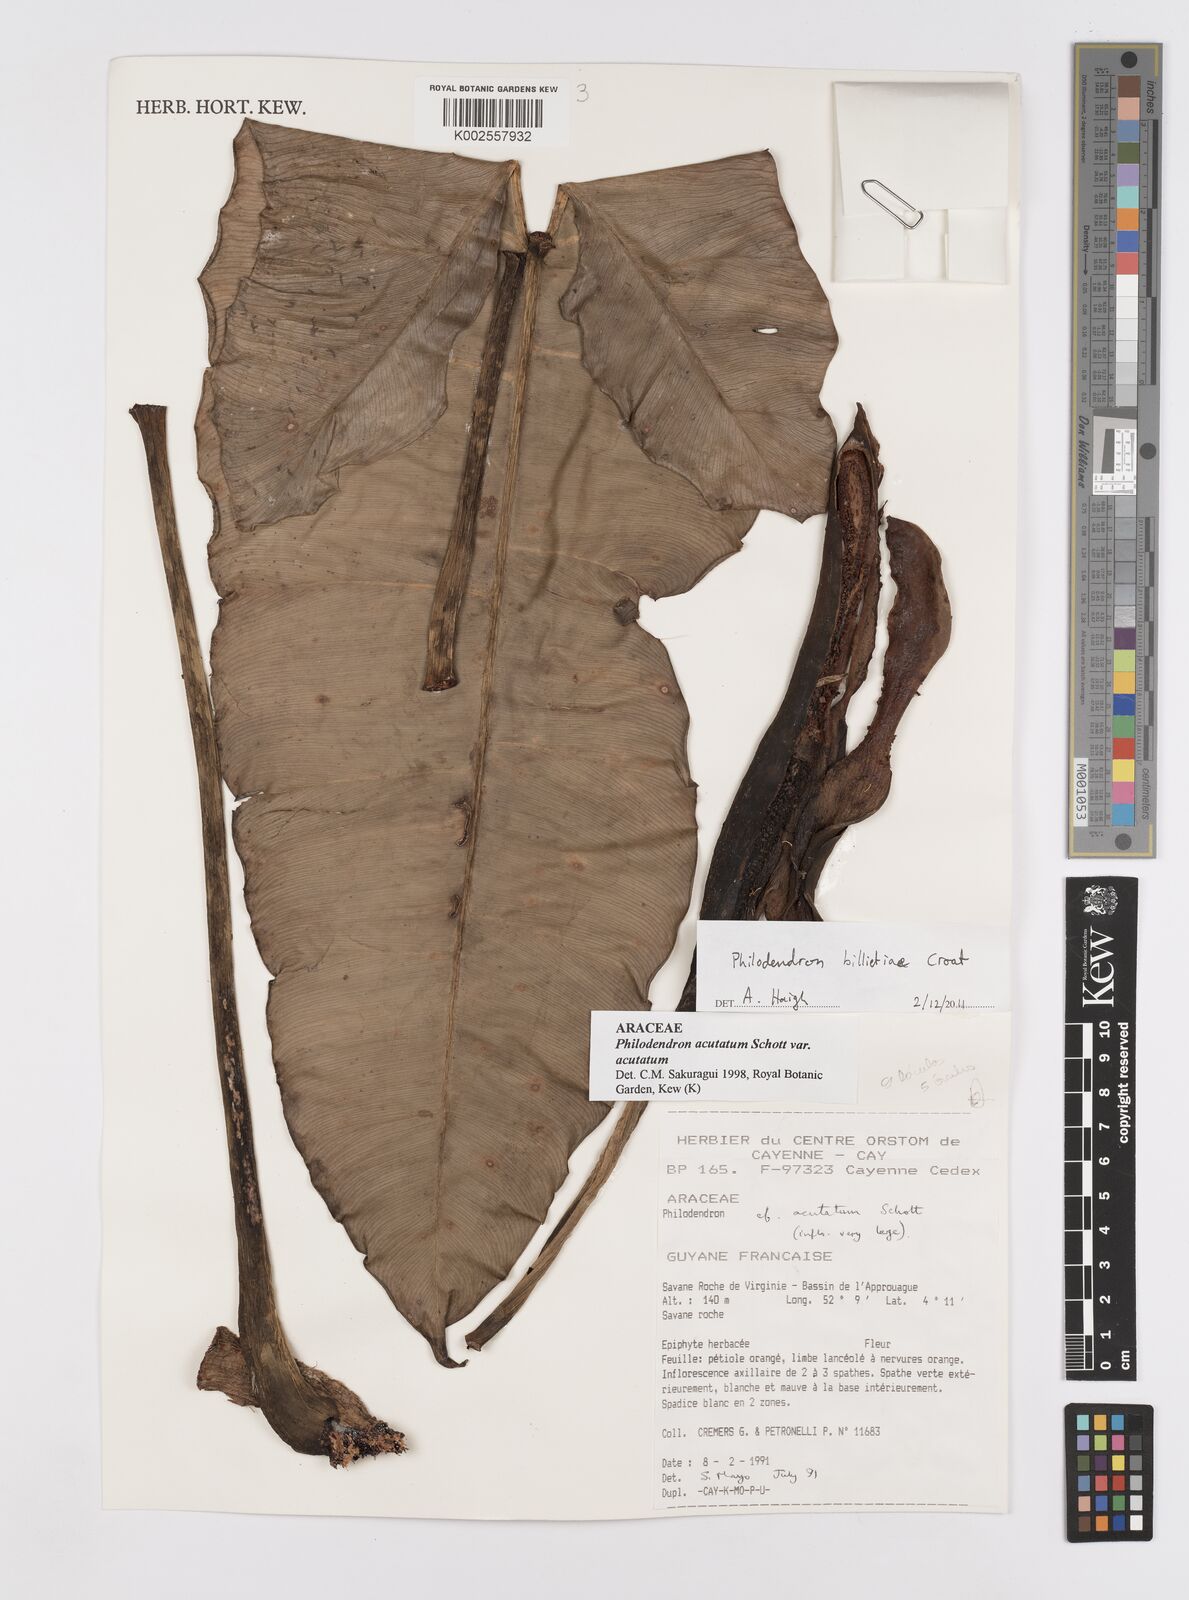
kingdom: Plantae
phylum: Tracheophyta
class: Liliopsida
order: Alismatales
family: Araceae
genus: Philodendron
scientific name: Philodendron billietiae
